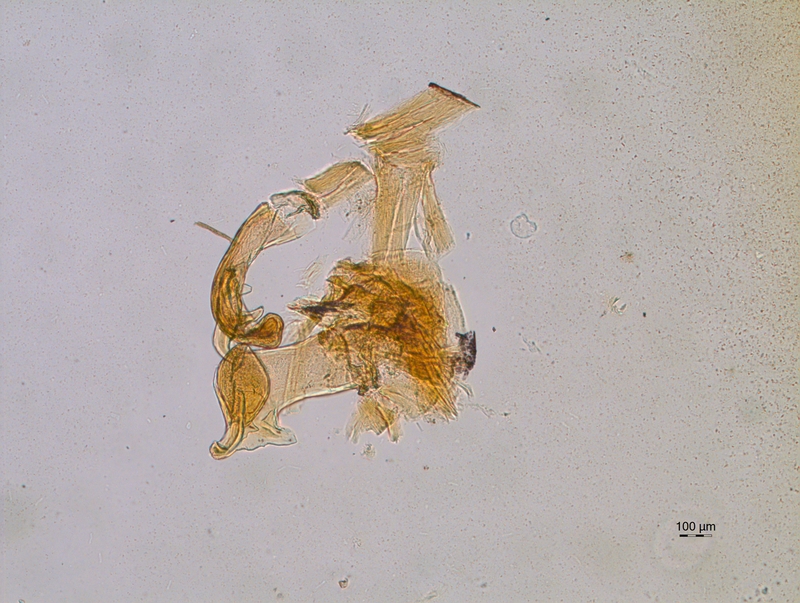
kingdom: Animalia
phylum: Arthropoda
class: Diplopoda
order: Chordeumatida
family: Craspedosomatidae
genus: Craspedosoma
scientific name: Craspedosoma rawlinsii
